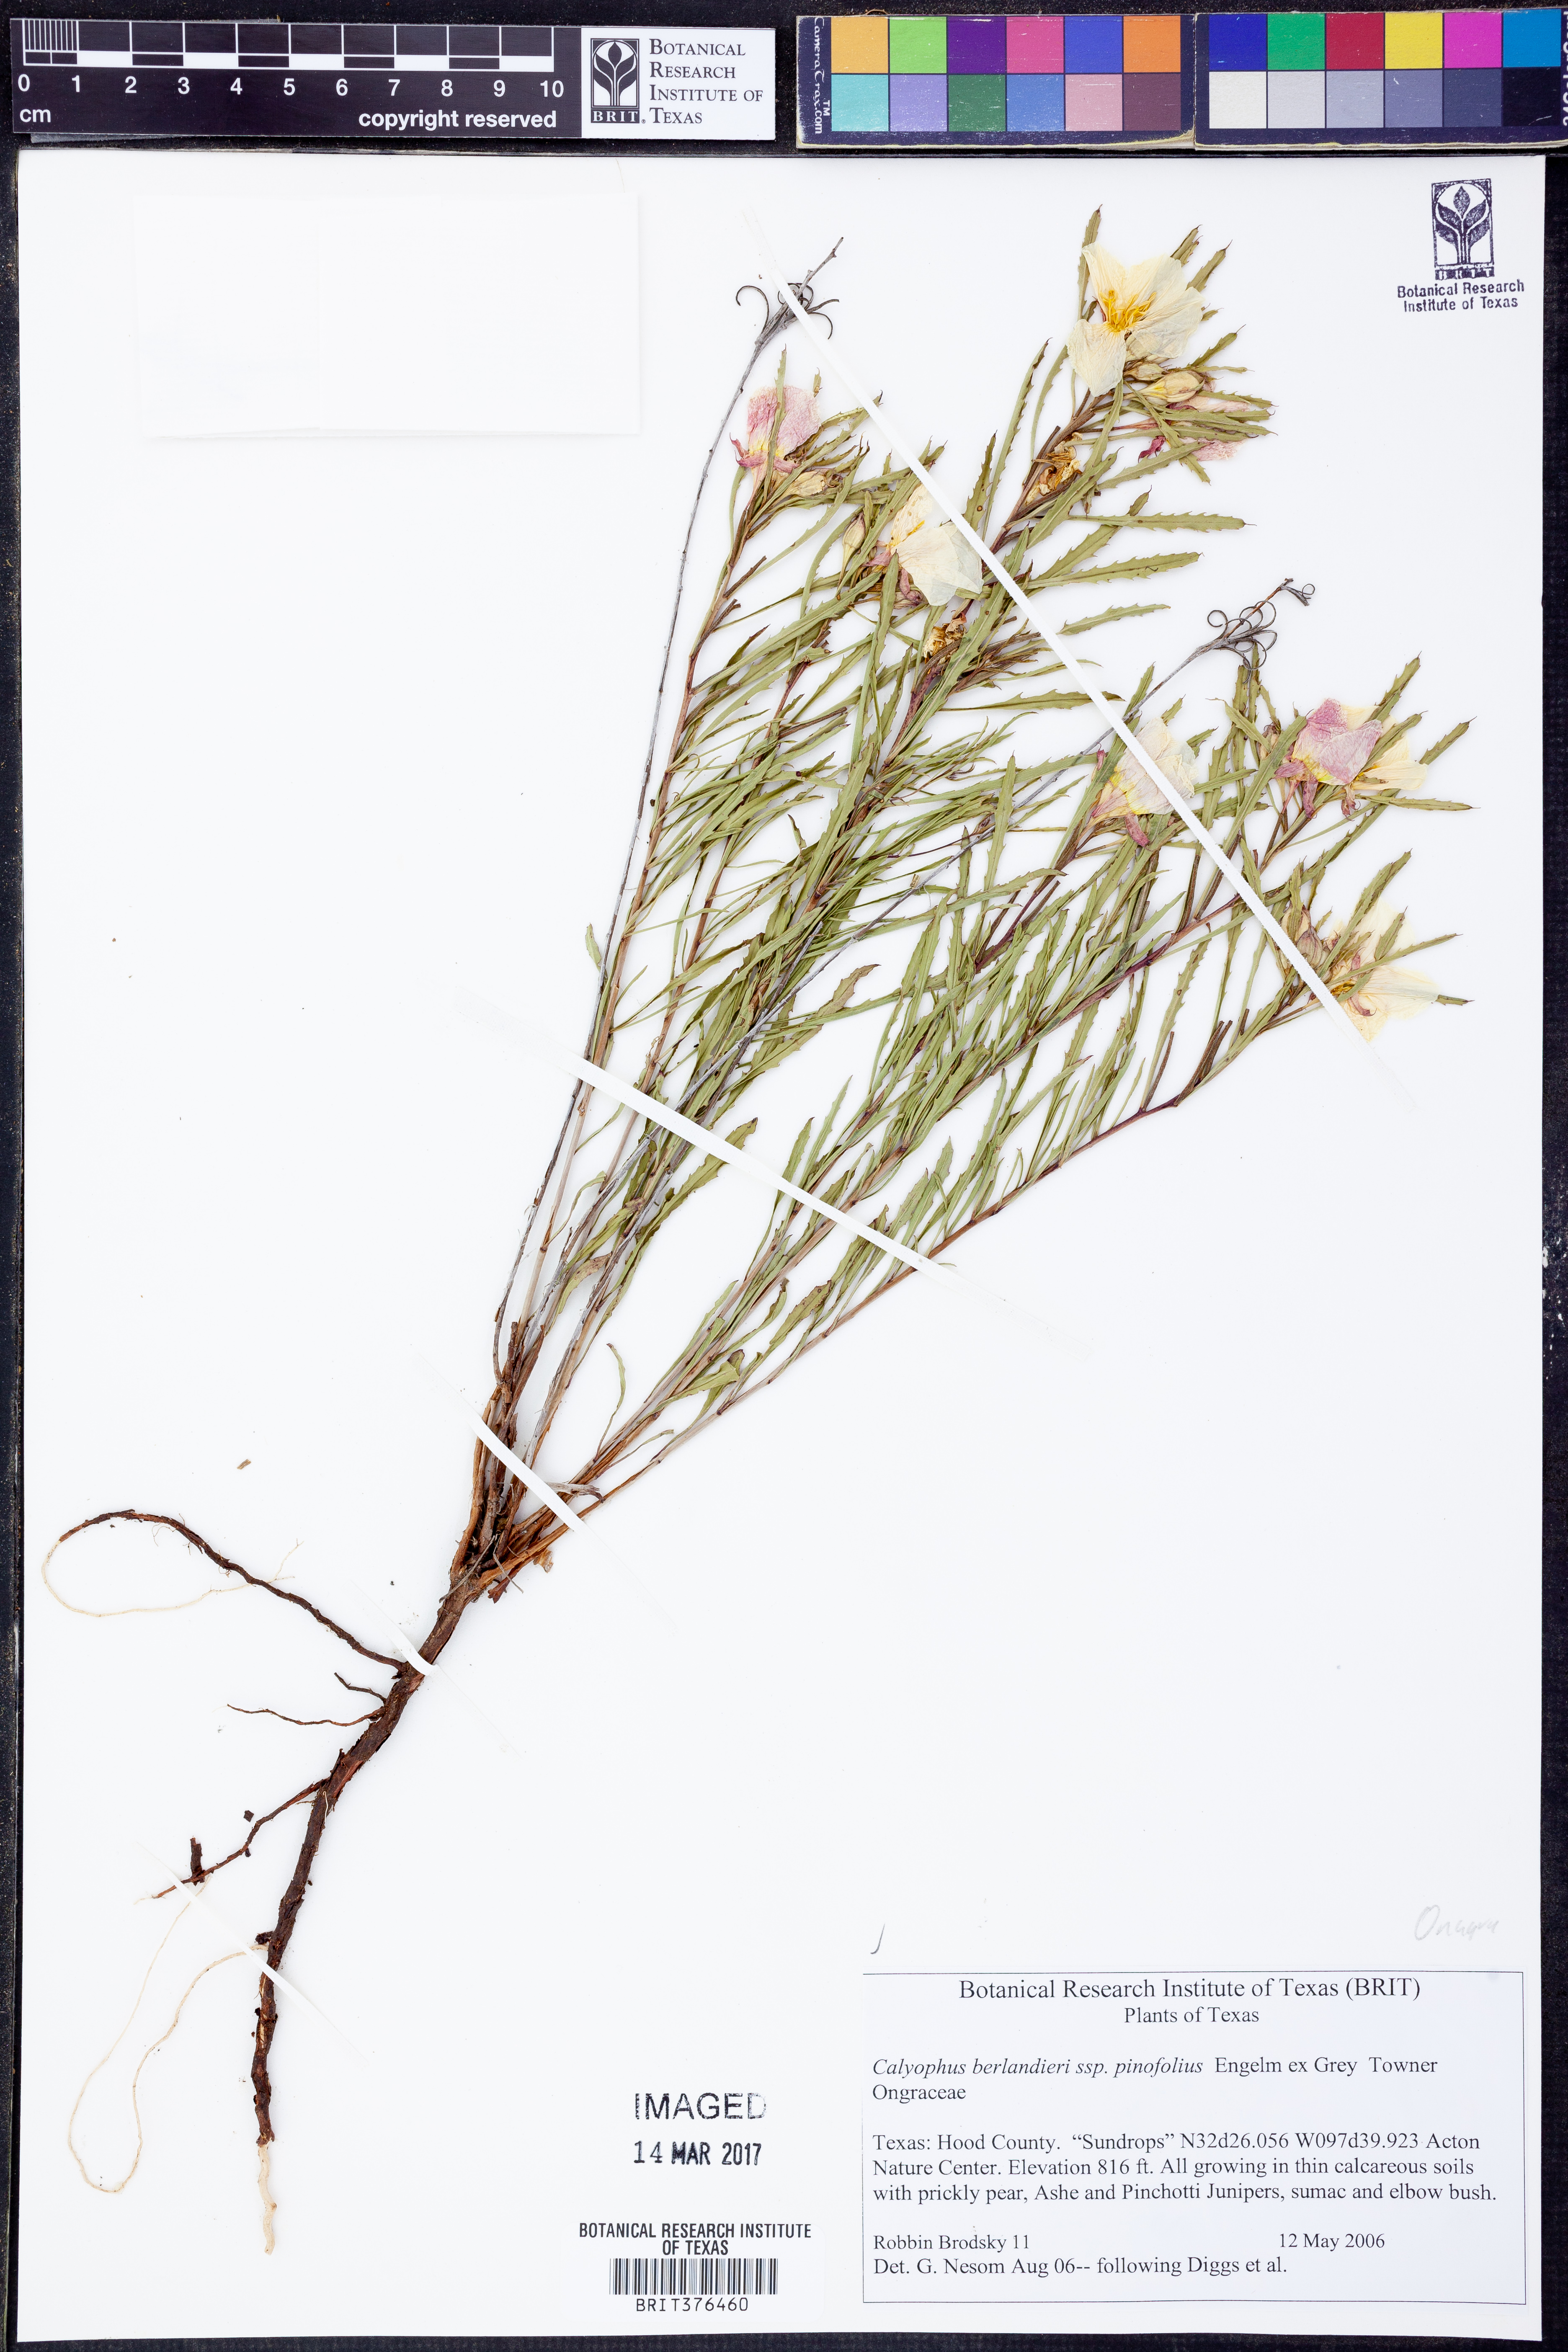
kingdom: Plantae
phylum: Tracheophyta
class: Magnoliopsida
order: Myrtales
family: Onagraceae
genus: Oenothera
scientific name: Oenothera capillifolia
